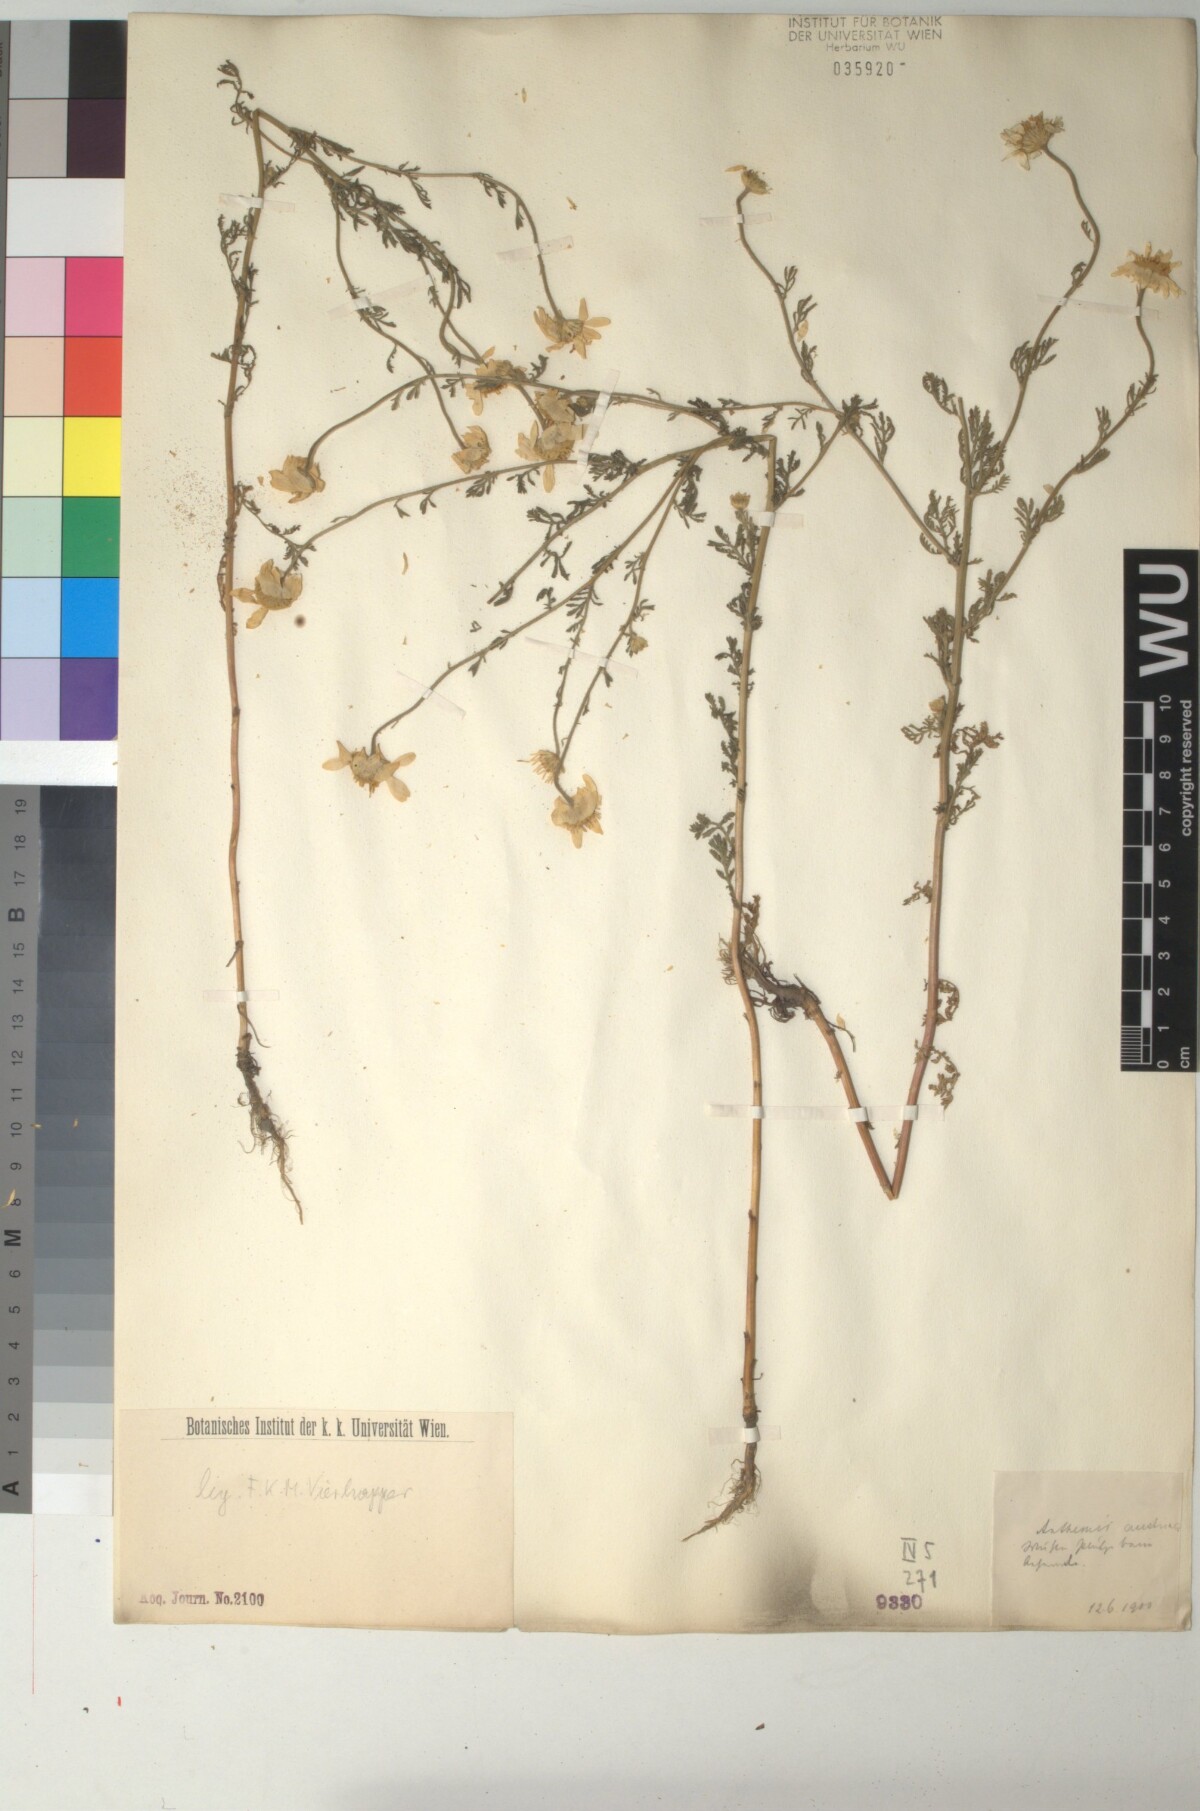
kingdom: Plantae
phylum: Tracheophyta
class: Magnoliopsida
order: Asterales
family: Asteraceae
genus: Cota
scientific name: Cota austriaca
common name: Austrian chamomile
